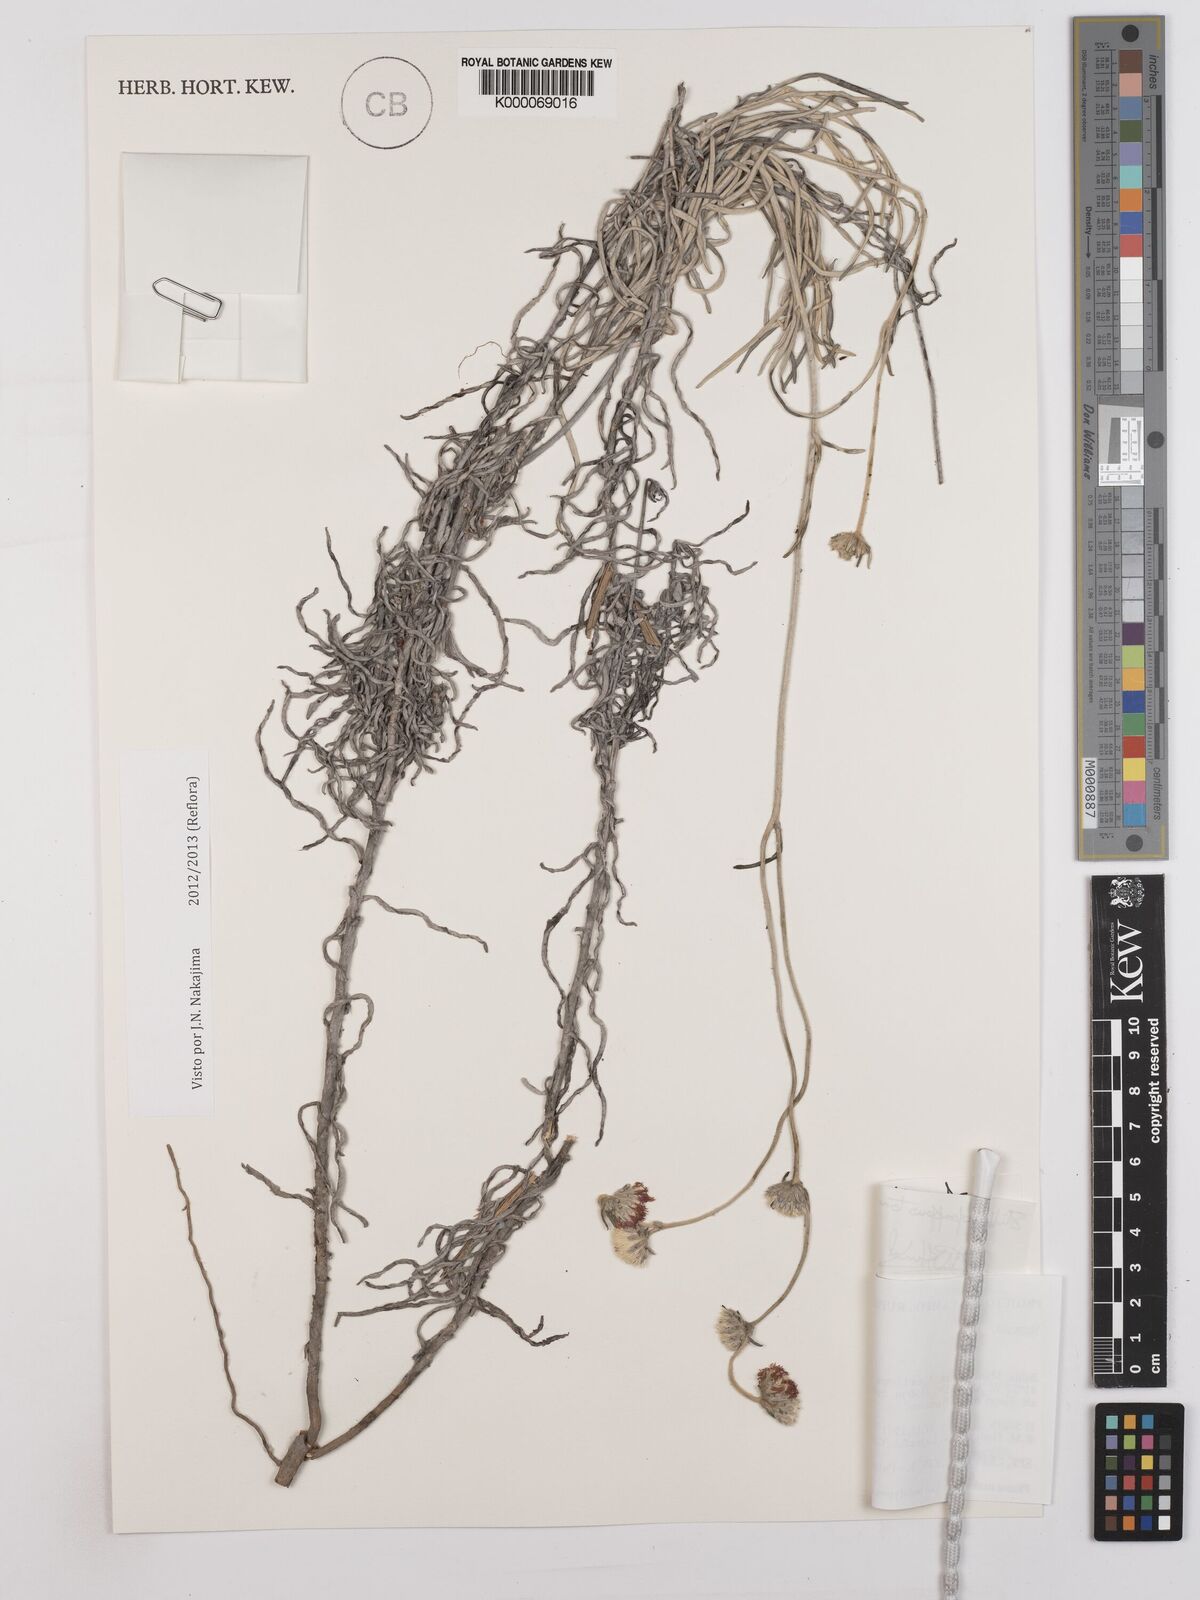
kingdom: Plantae
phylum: Tracheophyta
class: Magnoliopsida
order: Asterales
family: Asteraceae
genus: Stilpnopappus
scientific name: Stilpnopappus tomentosus
